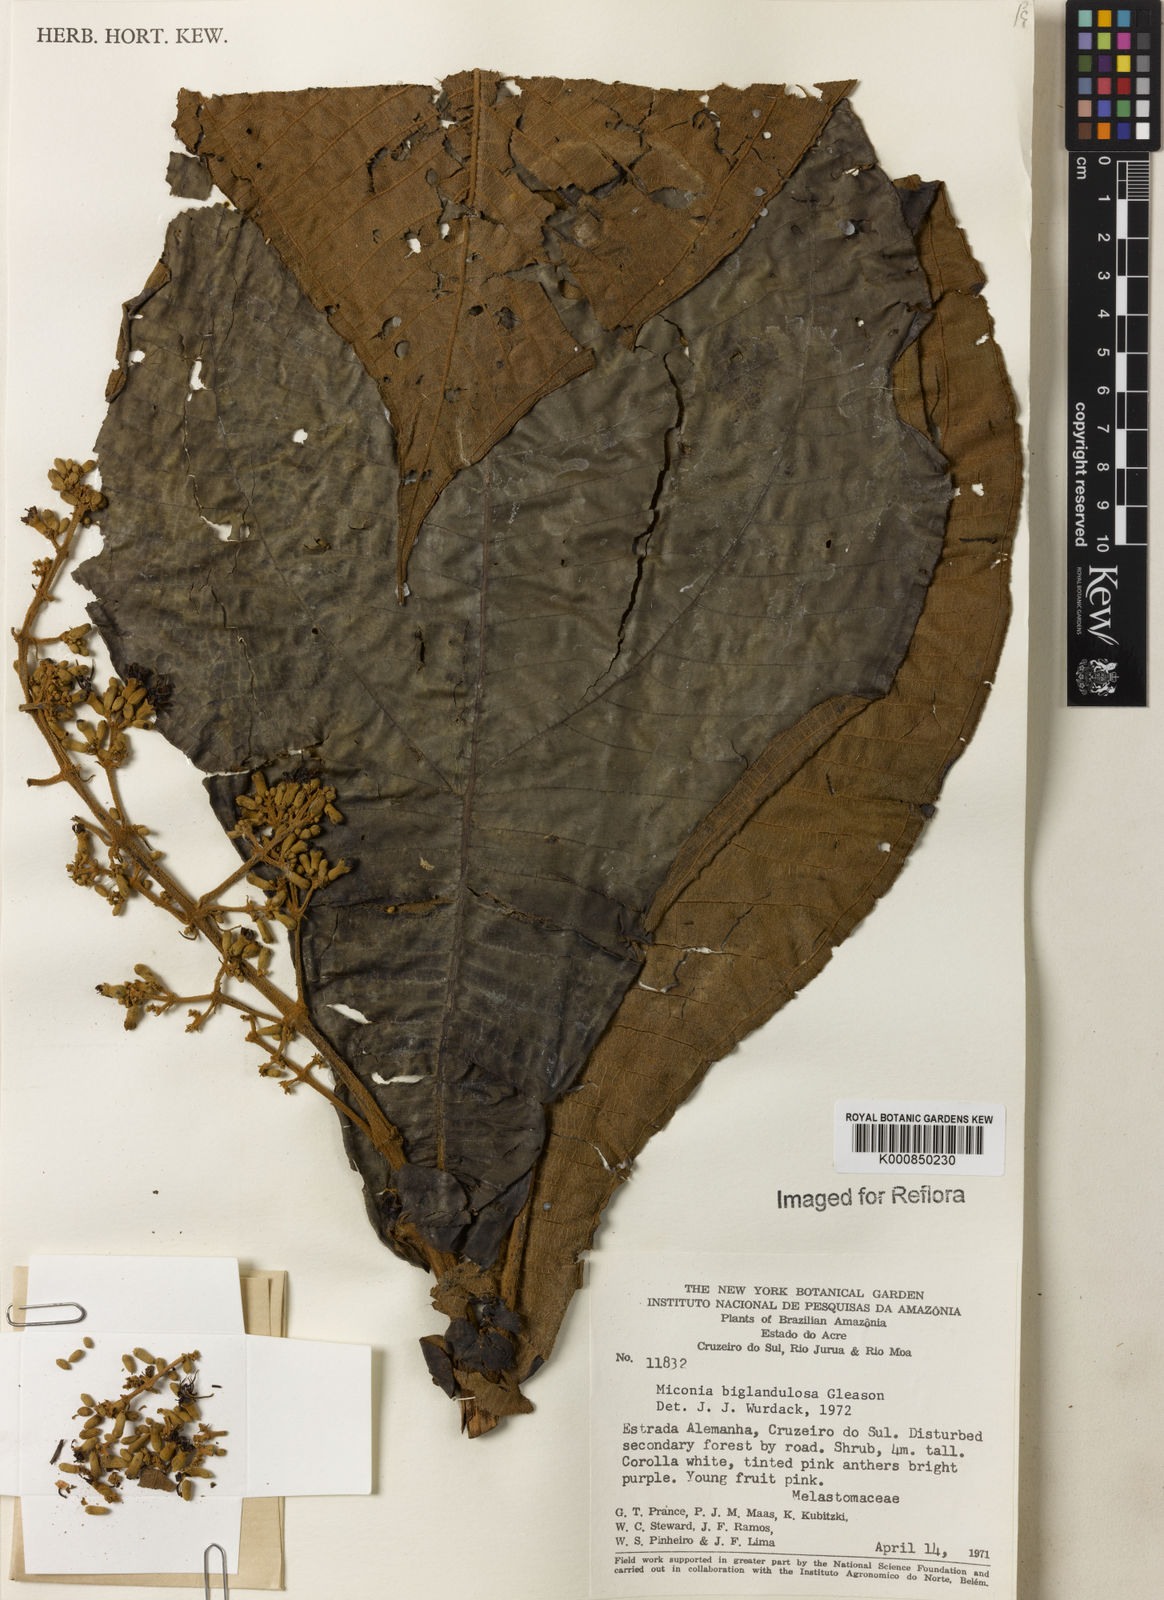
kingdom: Plantae
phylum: Tracheophyta
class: Magnoliopsida
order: Myrtales
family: Melastomataceae
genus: Miconia
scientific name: Miconia biglandulosa
